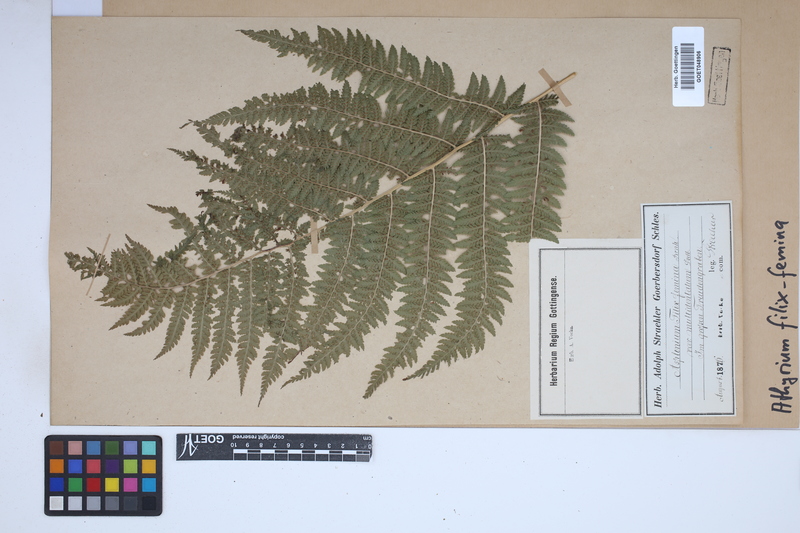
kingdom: Plantae
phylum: Tracheophyta
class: Polypodiopsida
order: Polypodiales
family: Athyriaceae
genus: Athyrium
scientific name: Athyrium filix-femina
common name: Lady fern
